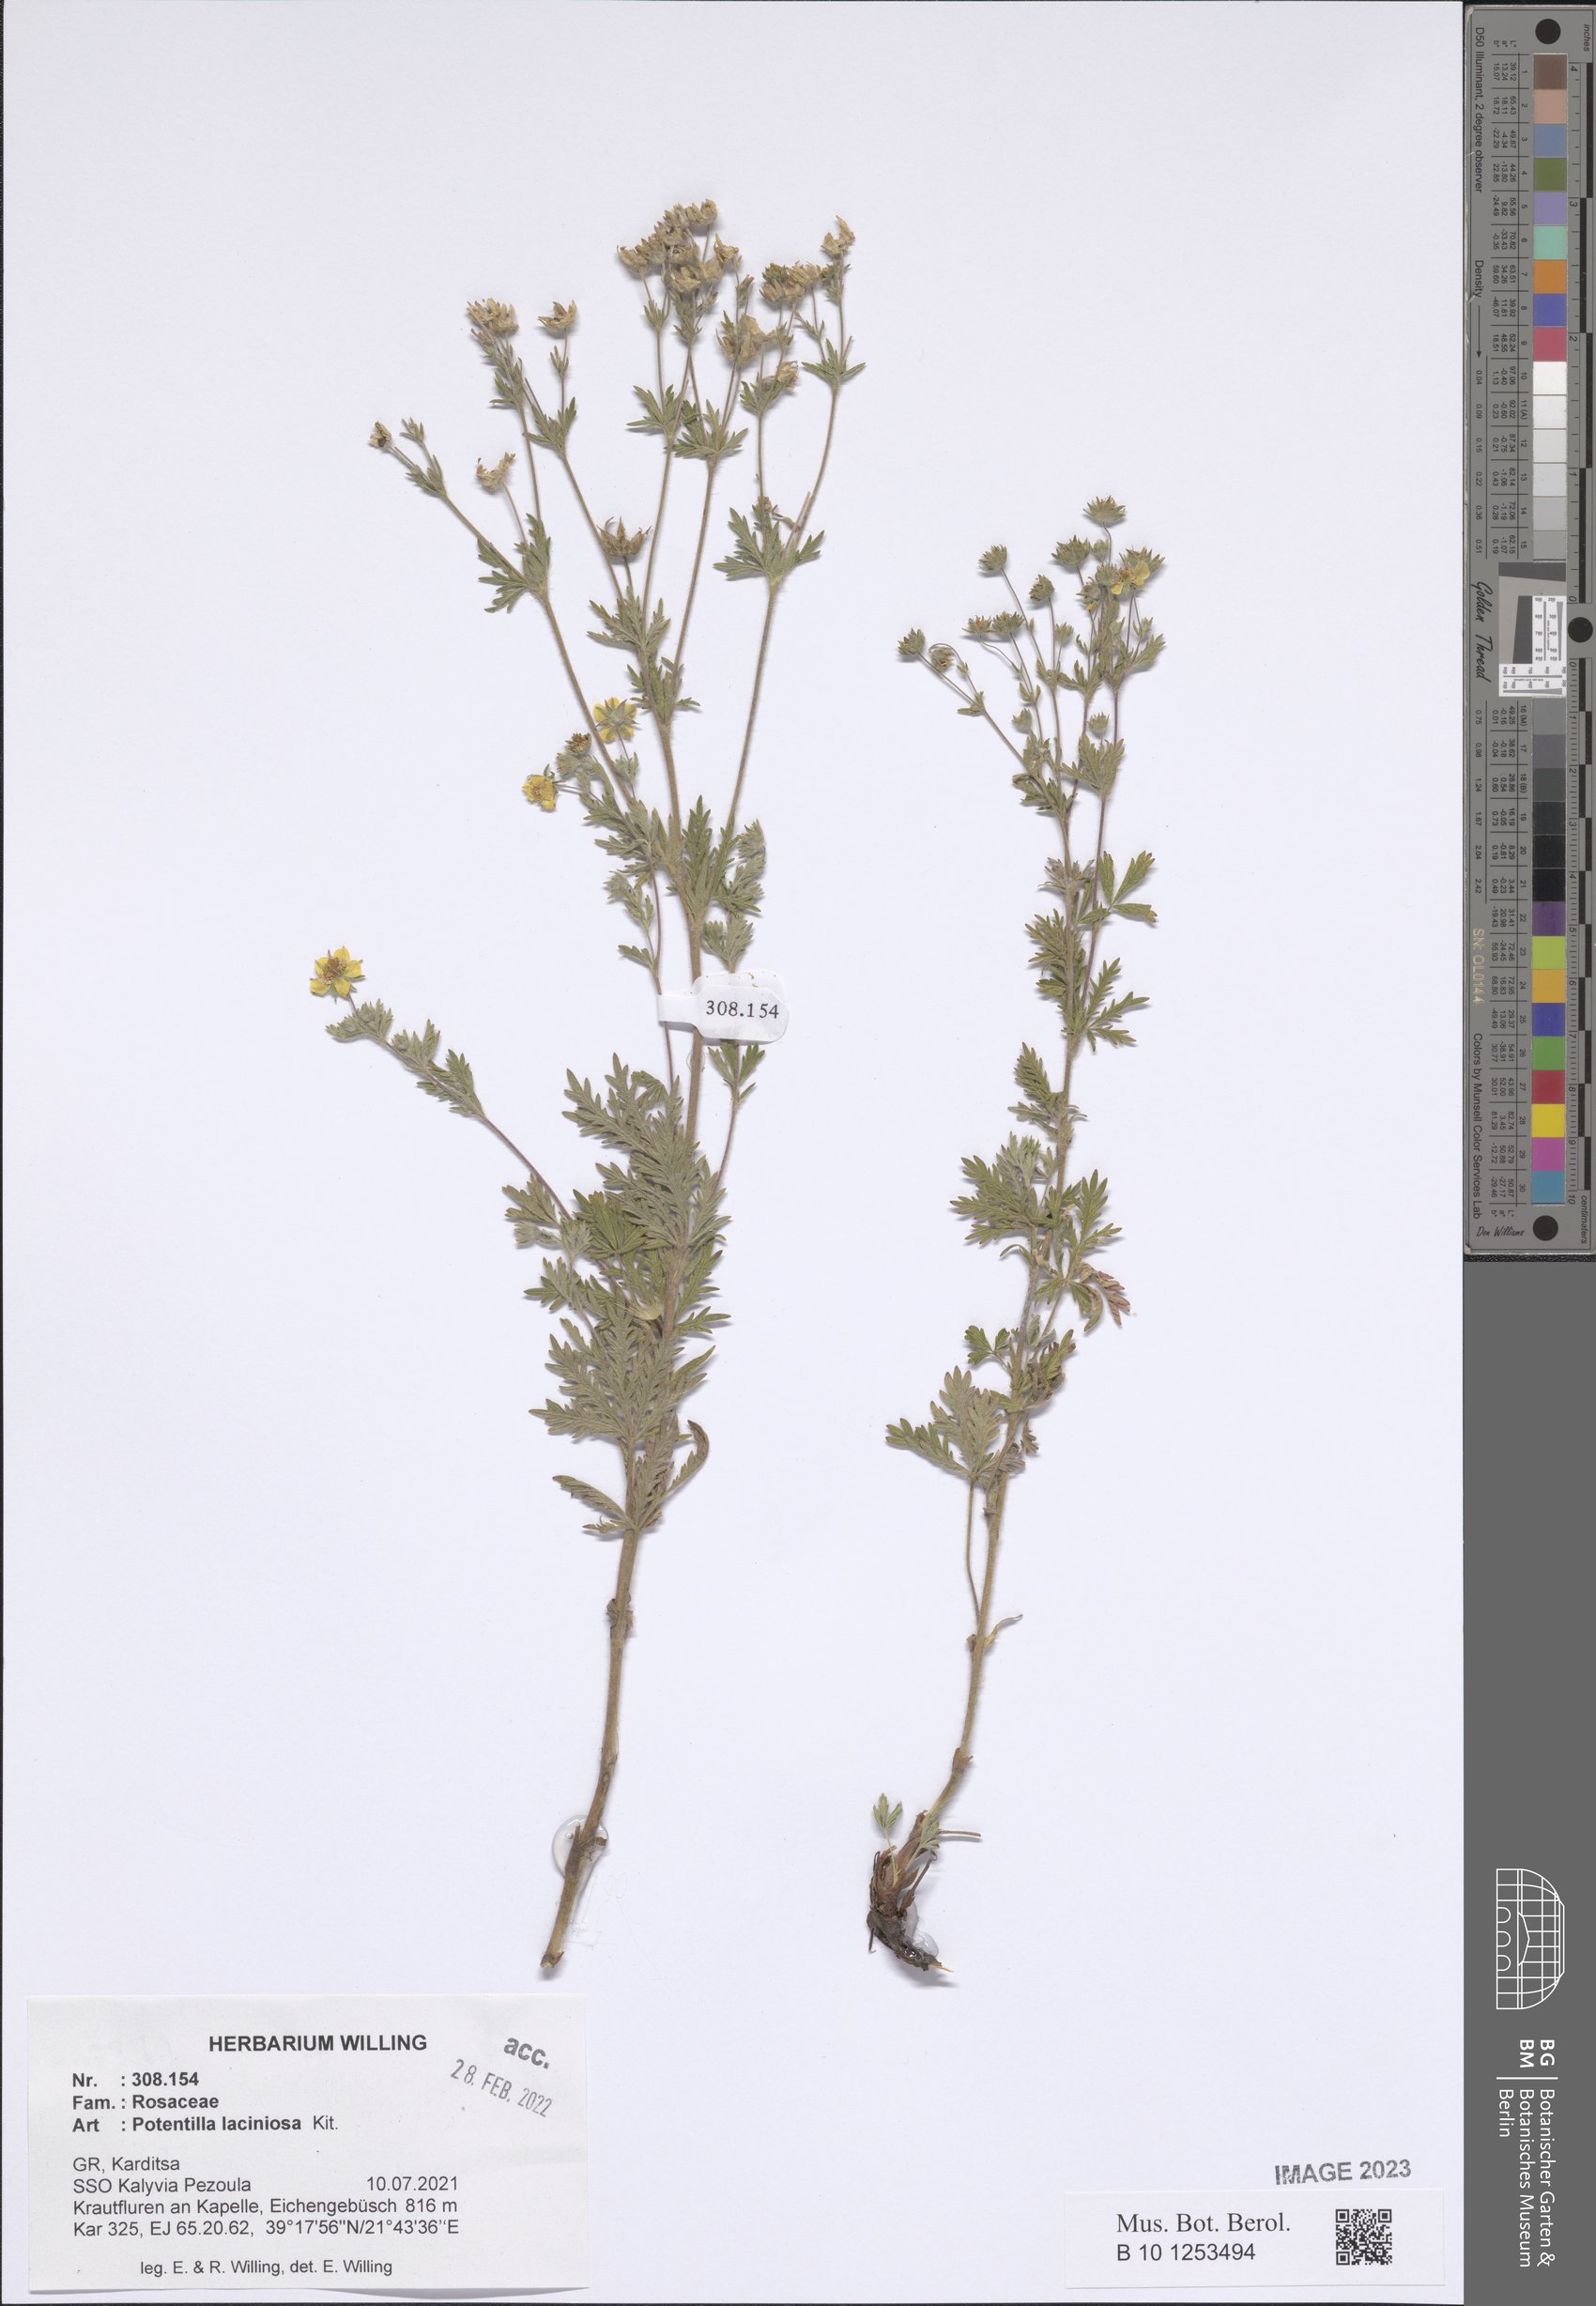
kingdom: Plantae
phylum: Tracheophyta
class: Magnoliopsida
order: Rosales
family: Rosaceae
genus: Potentilla
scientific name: Potentilla recta
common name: Sulphur cinquefoil
